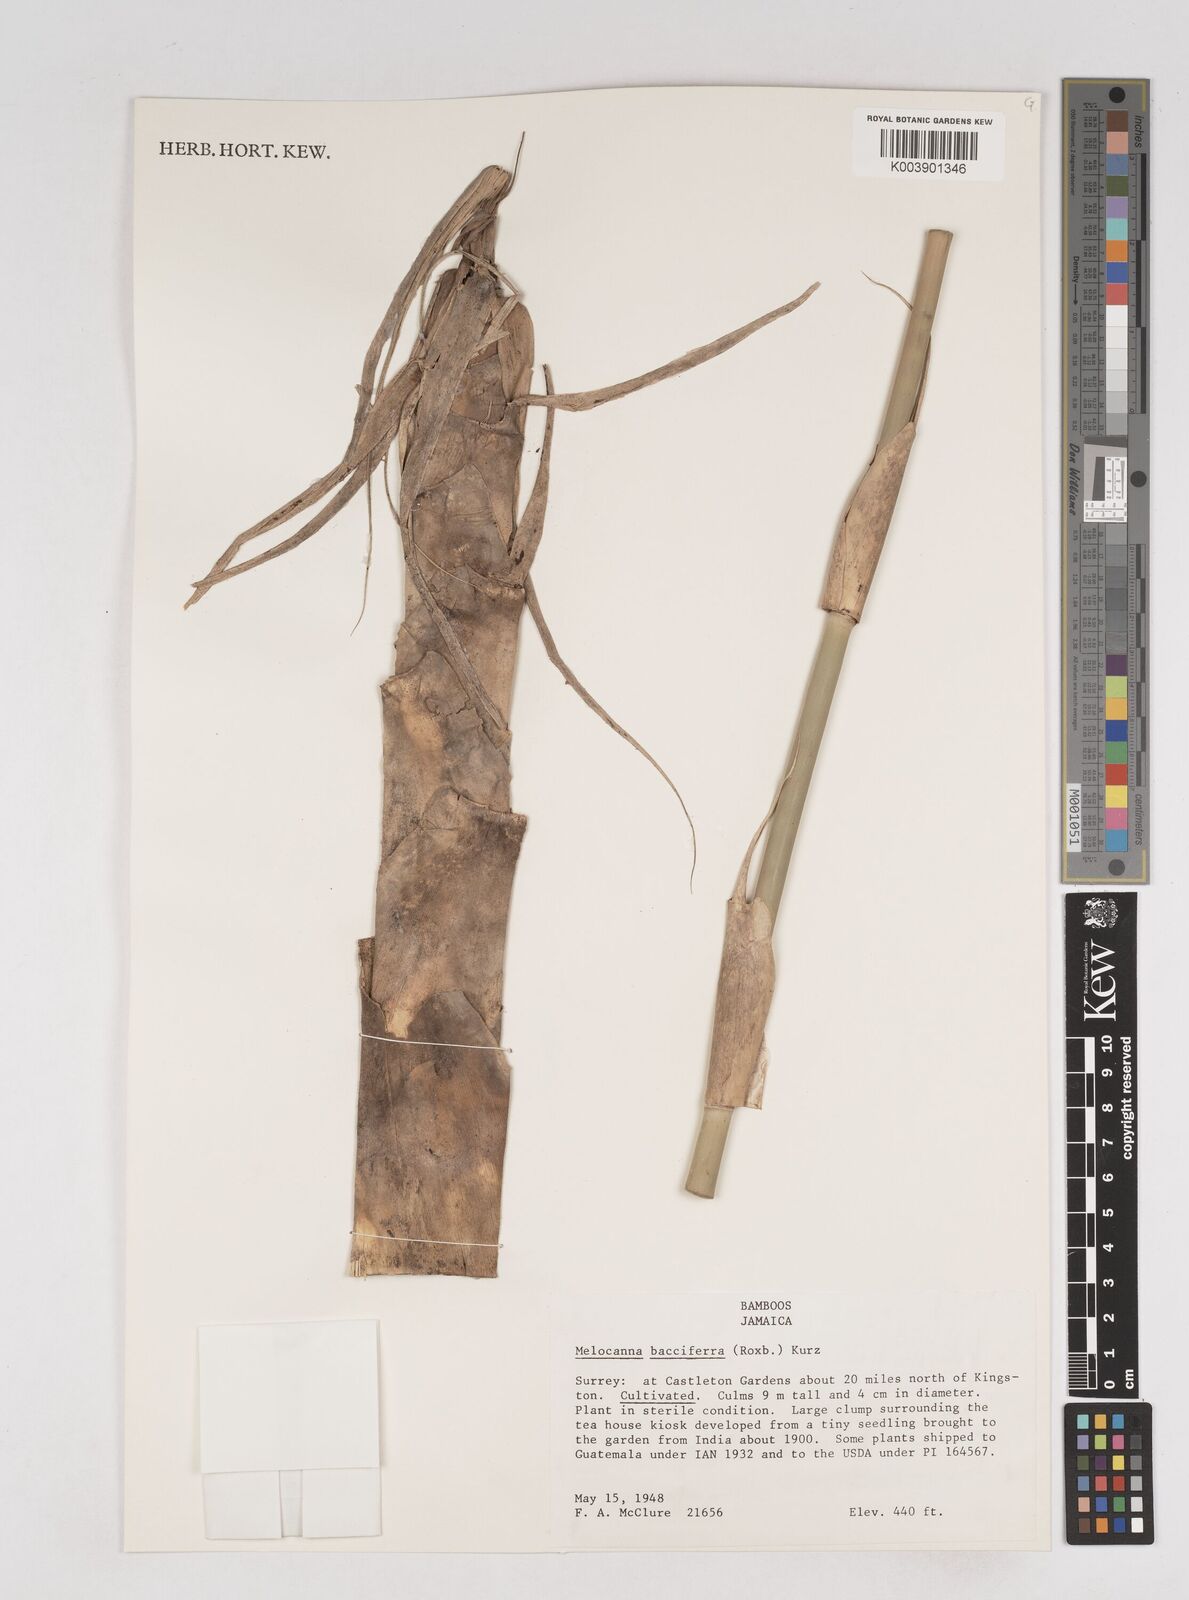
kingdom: Plantae
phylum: Tracheophyta
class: Liliopsida
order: Poales
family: Poaceae
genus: Melocanna
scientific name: Melocanna baccifera
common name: Berry bamboo
